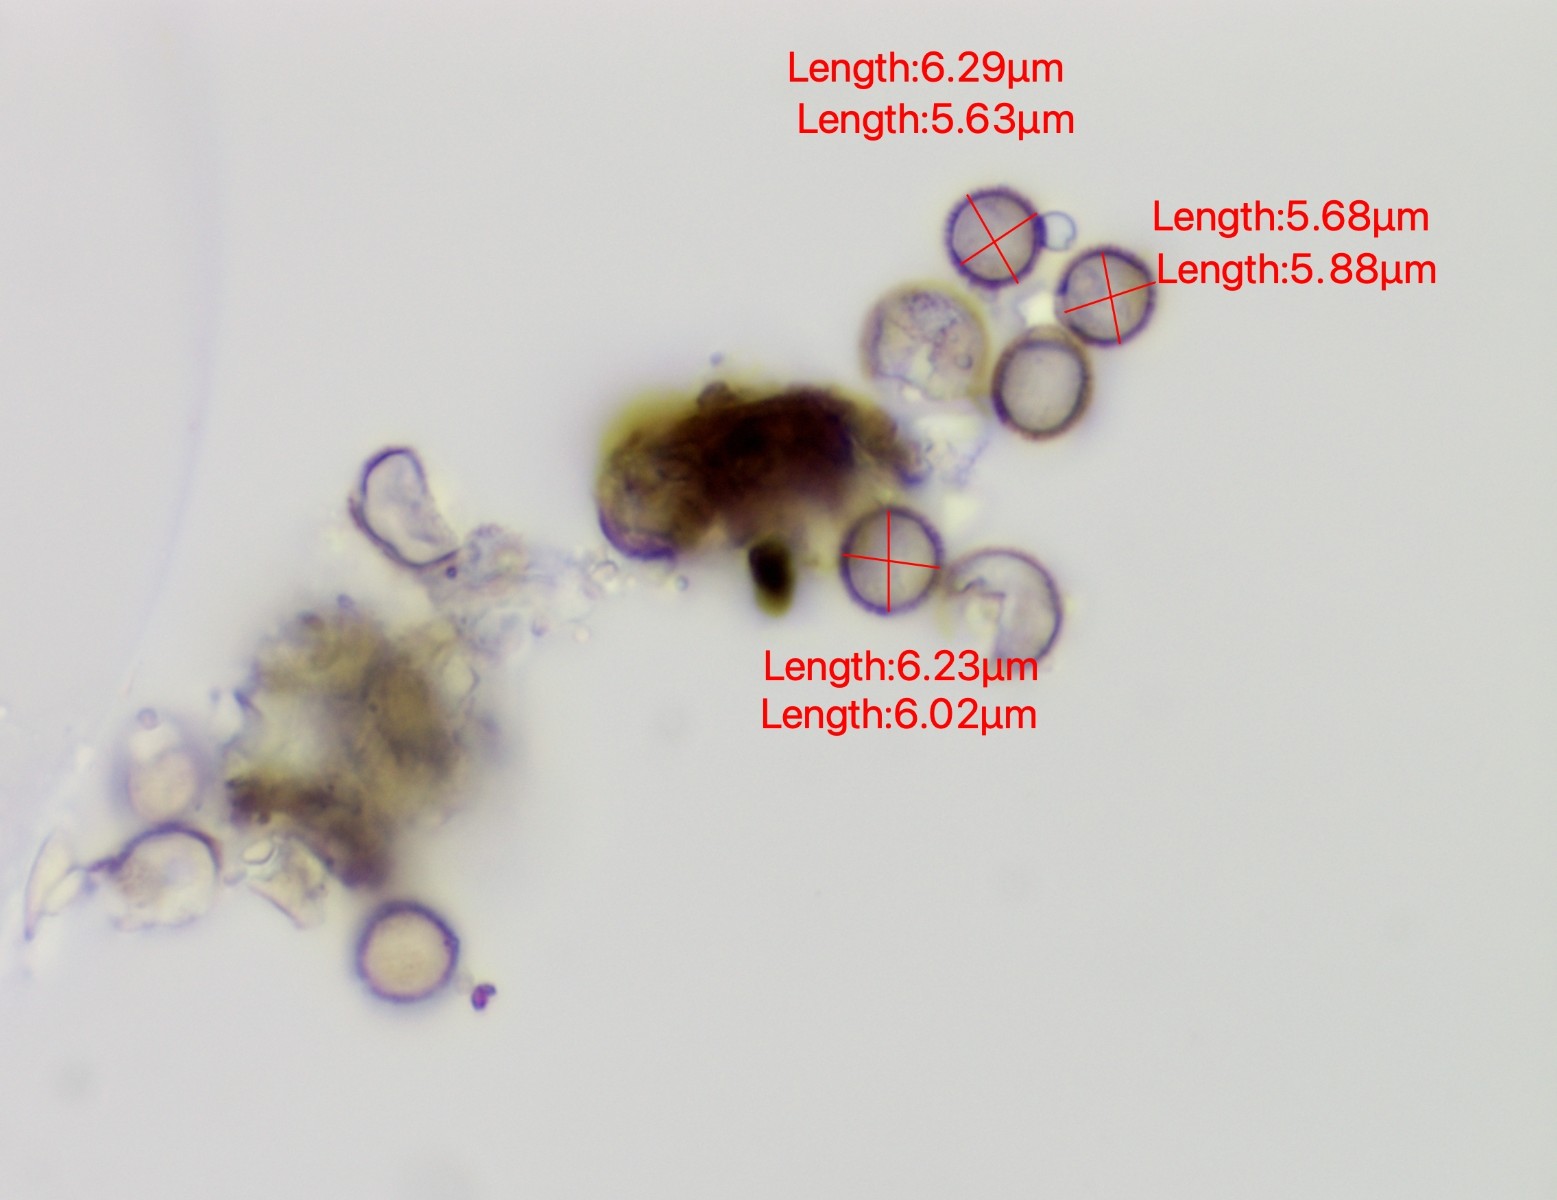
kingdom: Fungi
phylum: Basidiomycota
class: Agaricomycetes
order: Agaricales
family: Physalacriaceae
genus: Xerula
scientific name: Xerula pudens
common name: filtet pælerodshat
